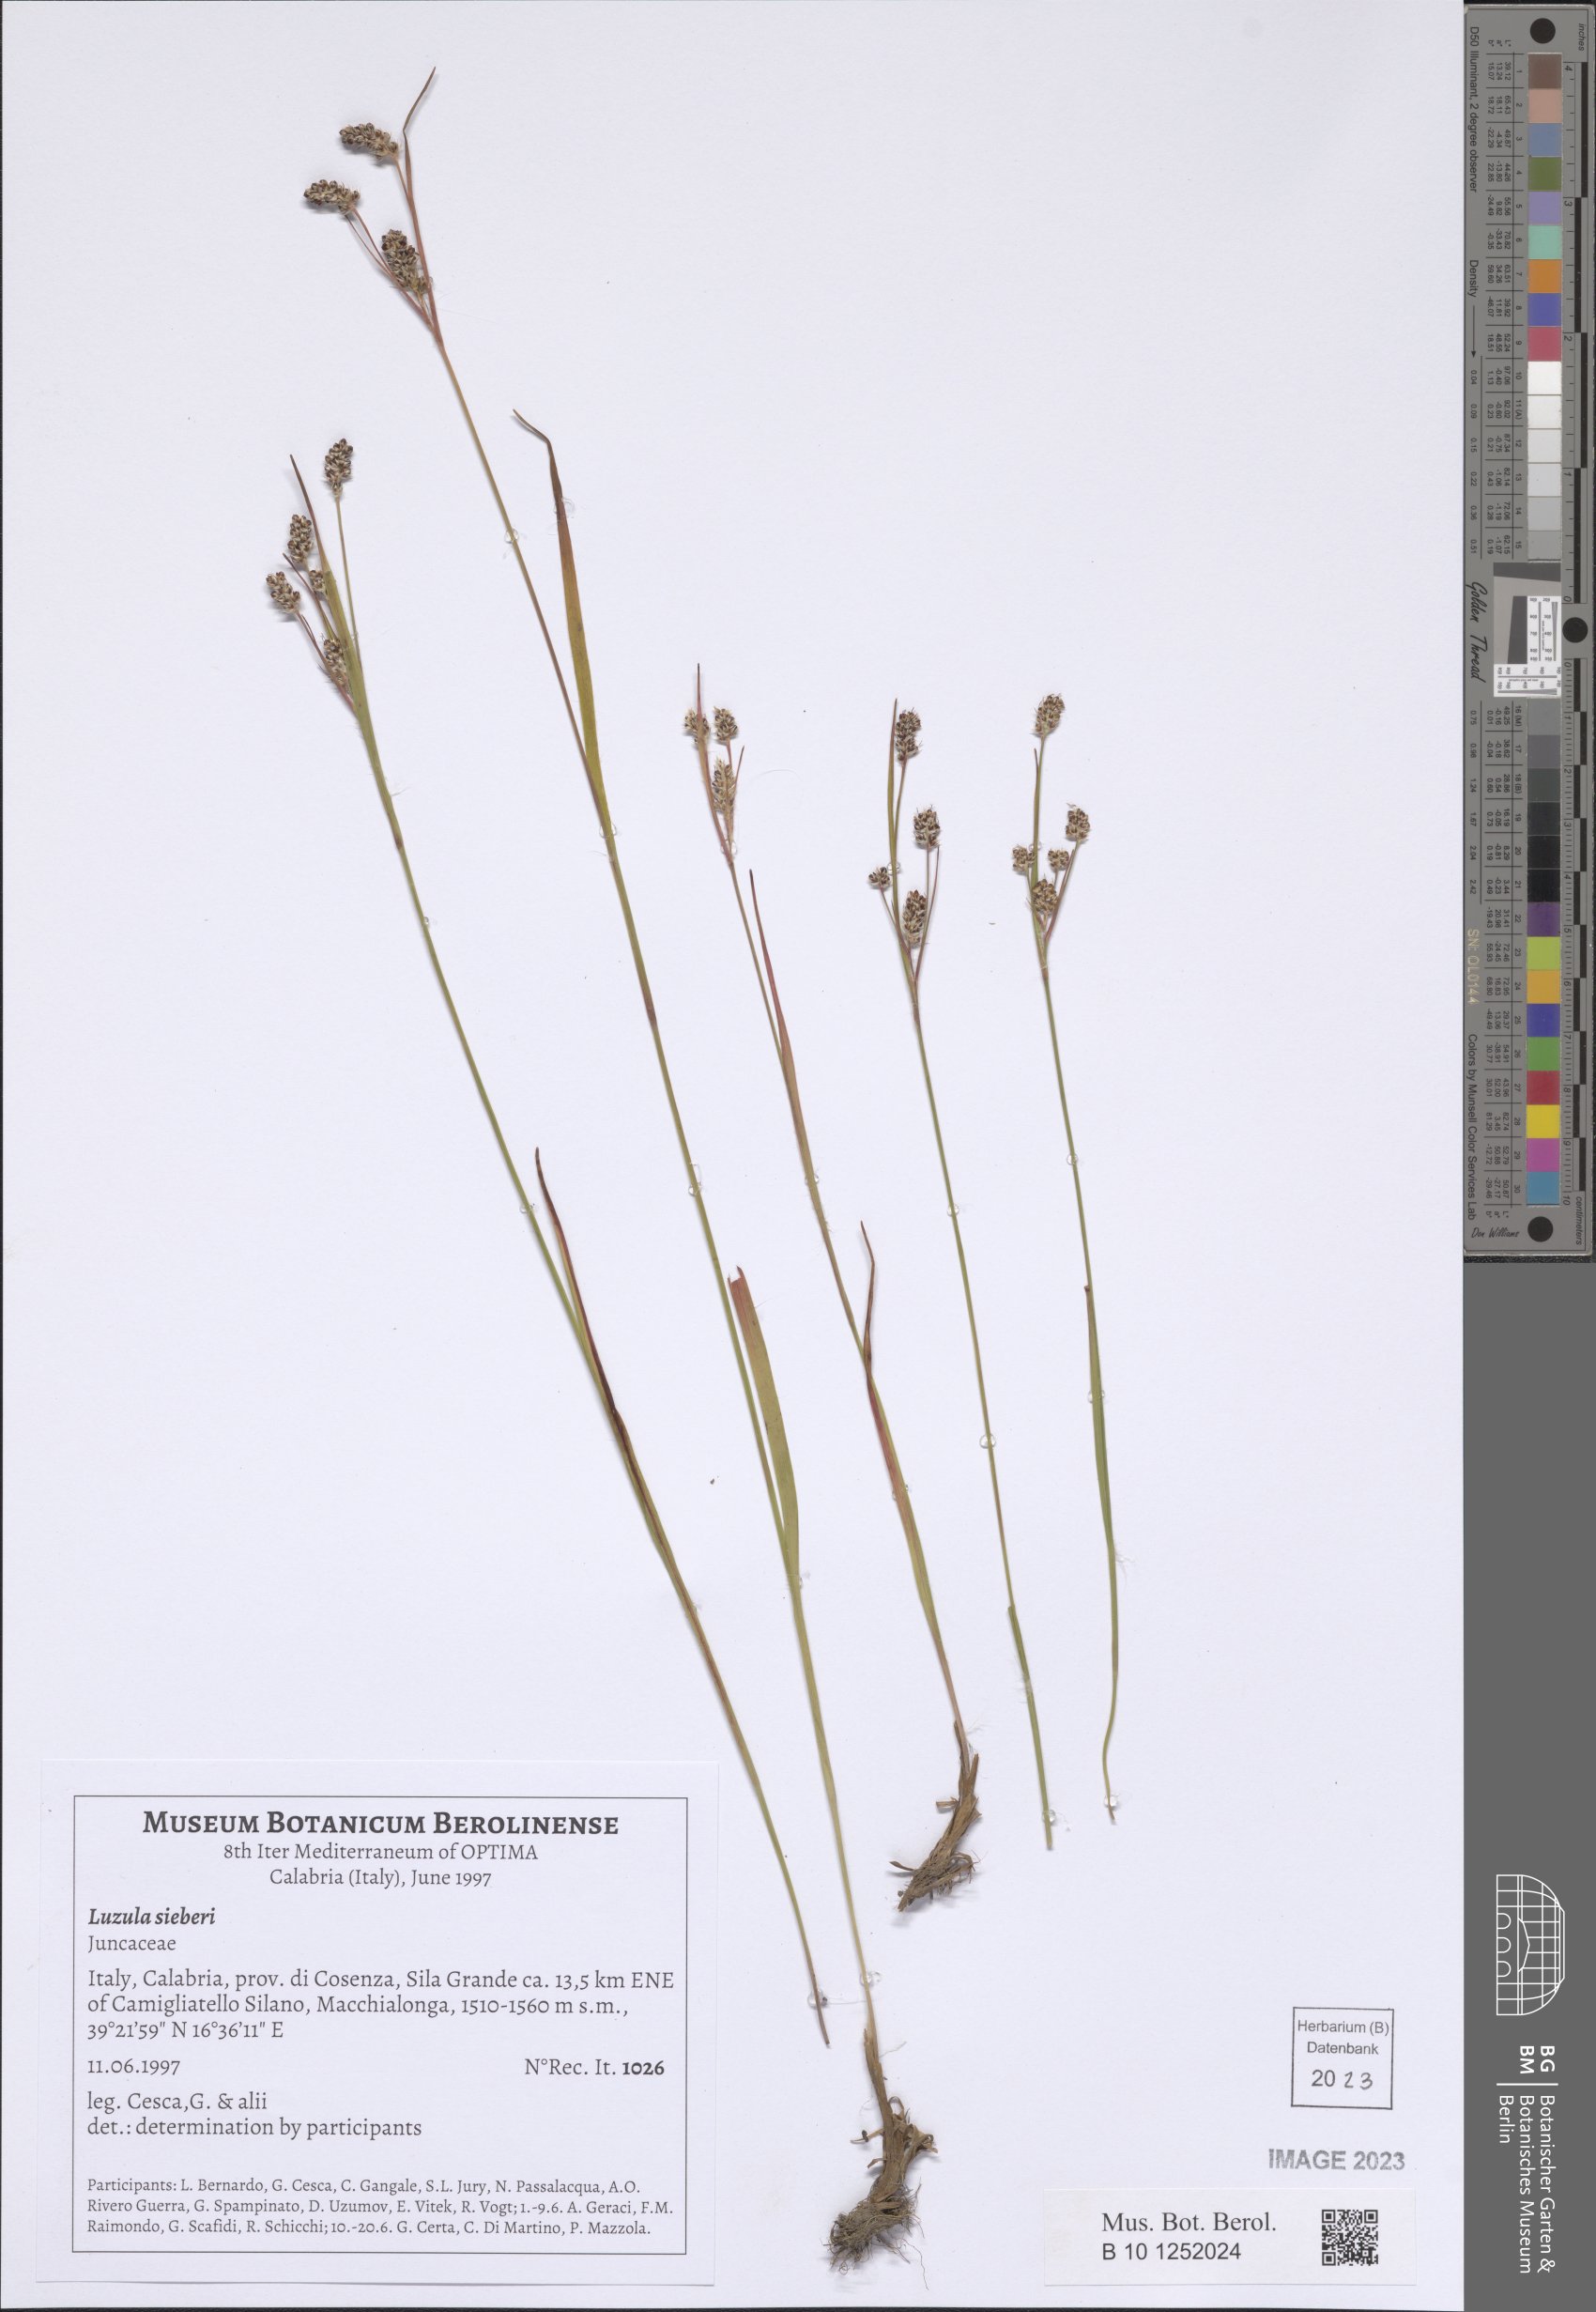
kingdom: Plantae
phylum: Tracheophyta
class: Liliopsida
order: Poales
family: Juncaceae
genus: Luzula
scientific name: Luzula sylvatica
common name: Great wood-rush
